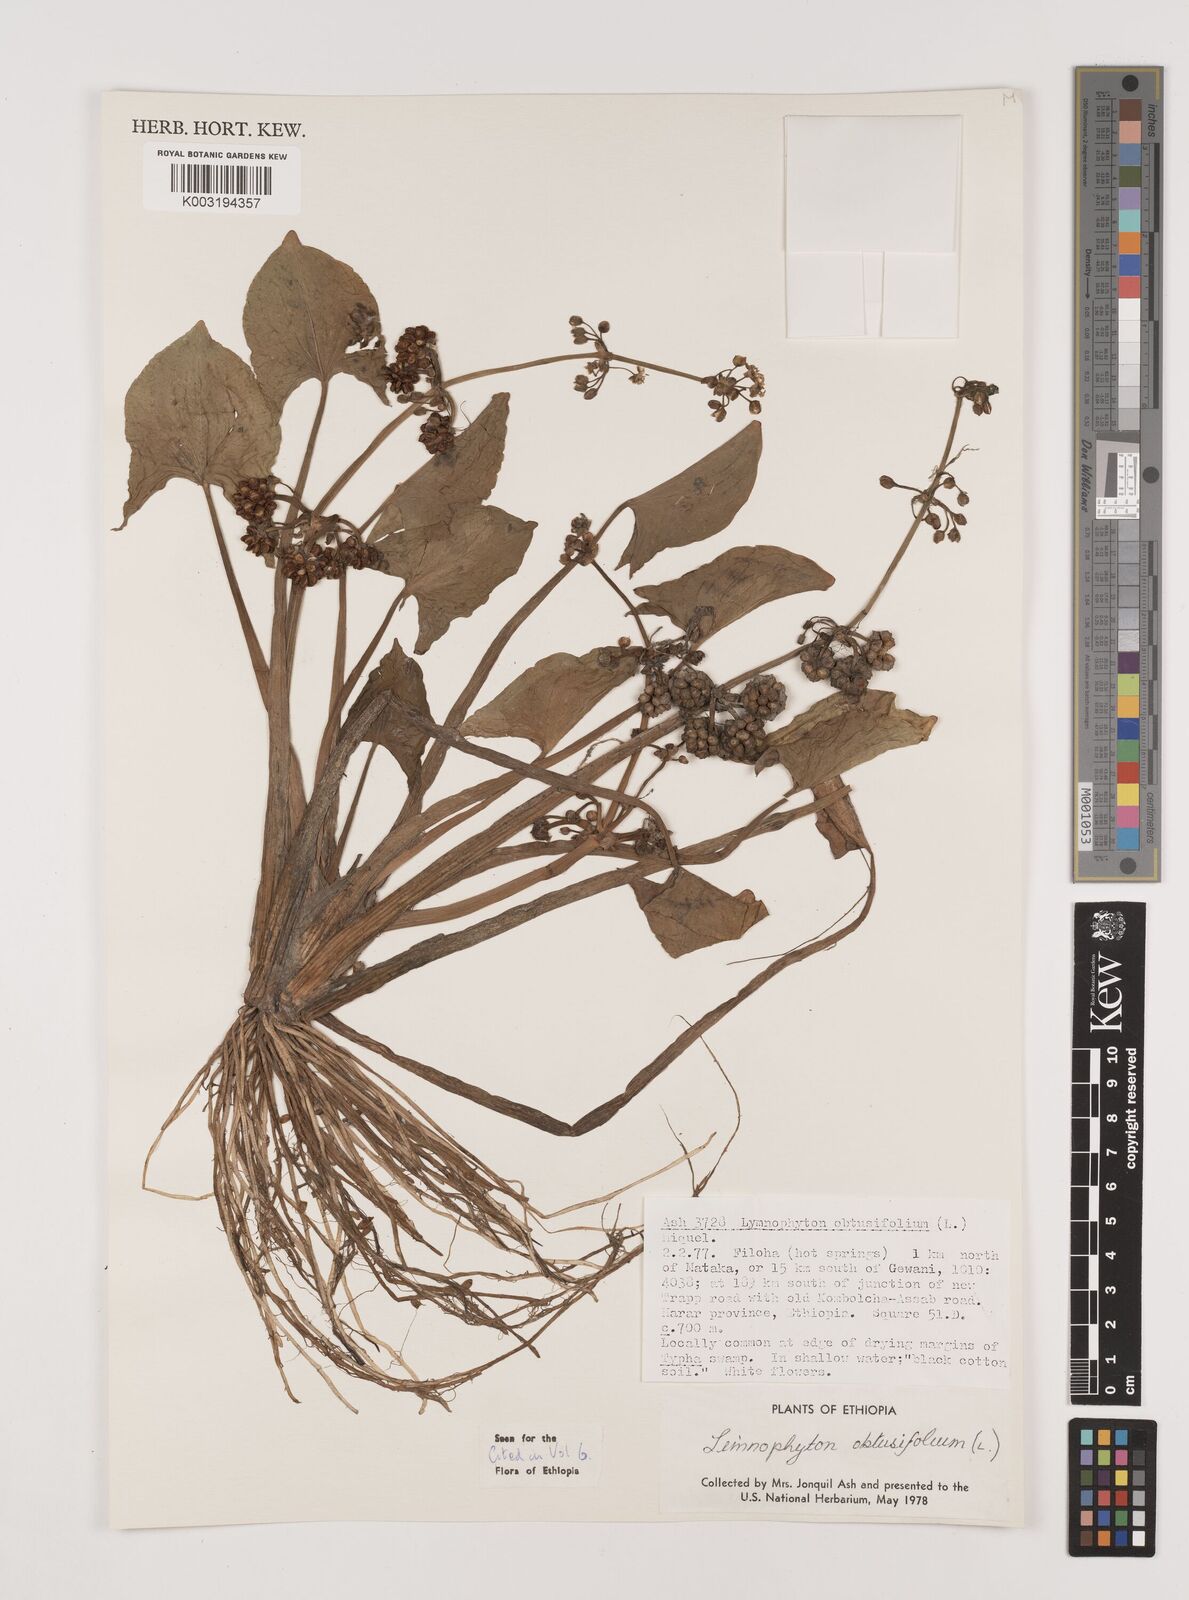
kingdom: Plantae
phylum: Tracheophyta
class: Liliopsida
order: Alismatales
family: Alismataceae
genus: Limnophyton
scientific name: Limnophyton obtusifolium
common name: Arrow head
